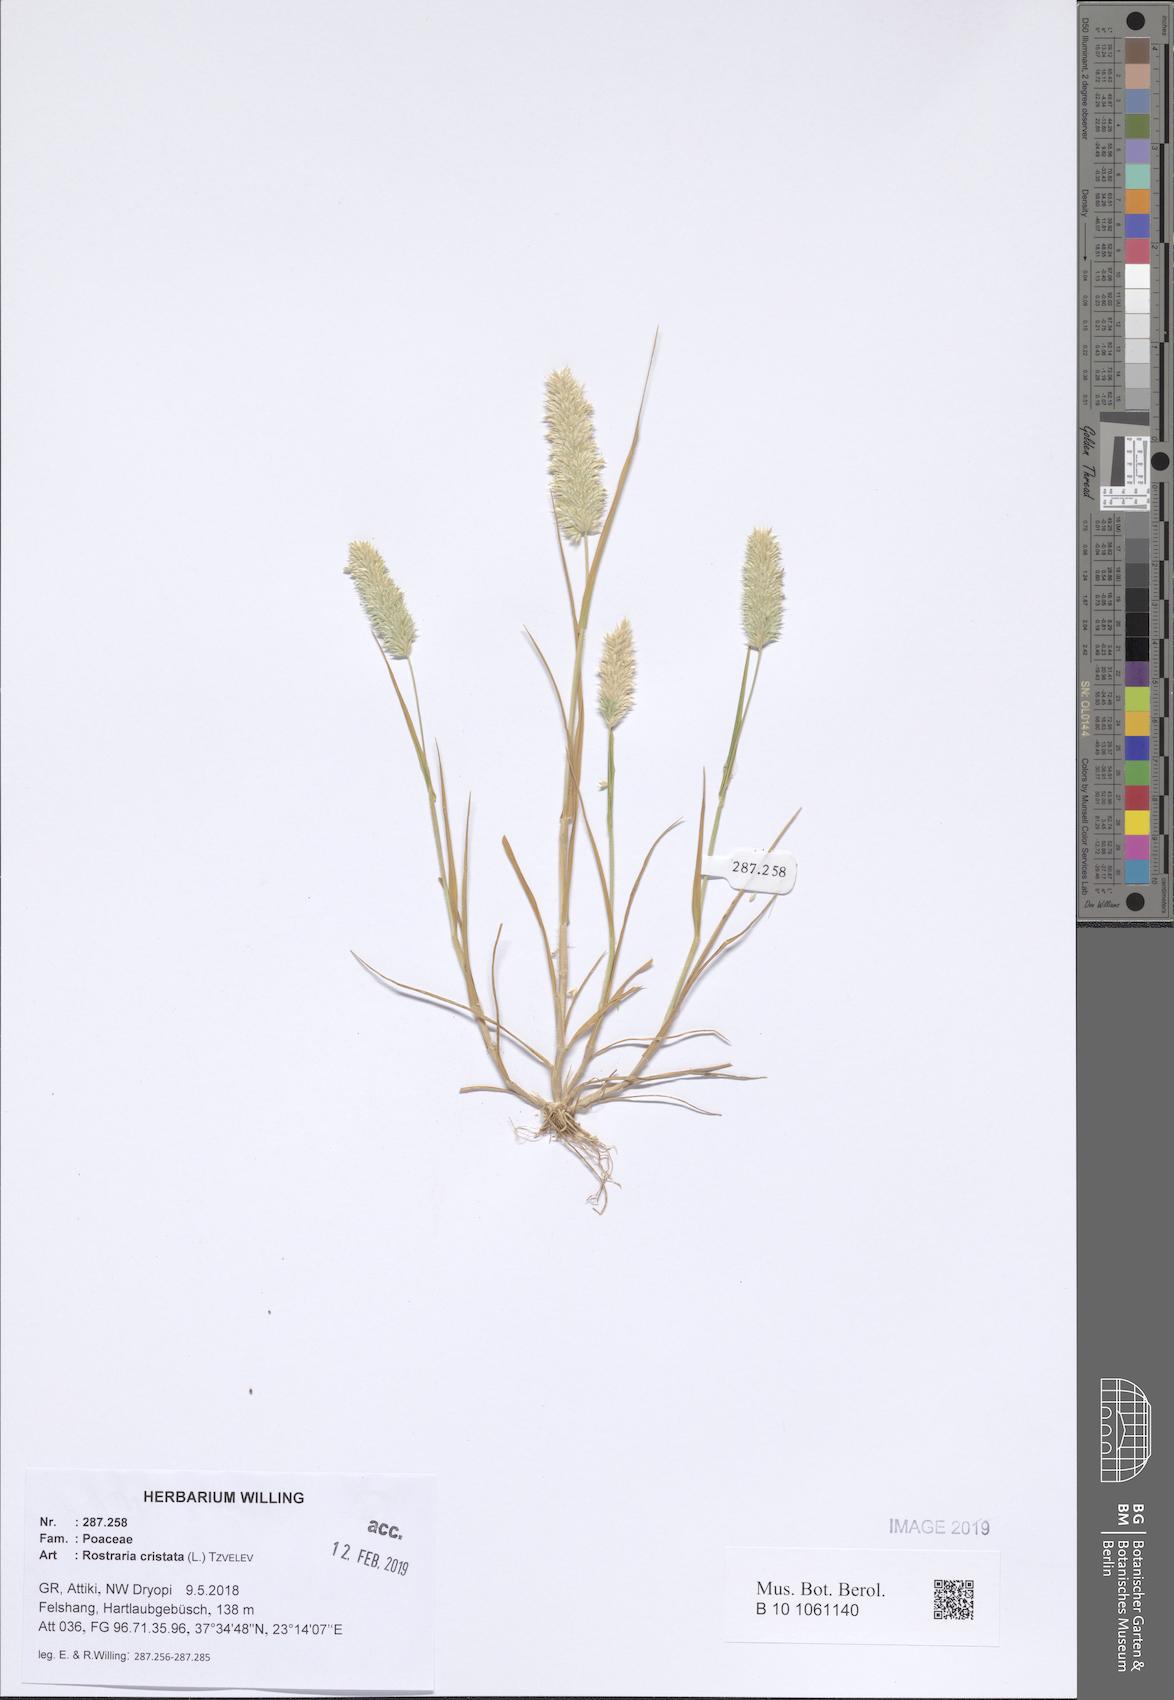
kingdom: Plantae
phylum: Tracheophyta
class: Liliopsida
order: Poales
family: Poaceae
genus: Rostraria
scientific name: Rostraria cristata
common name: Mediterranean hair-grass
